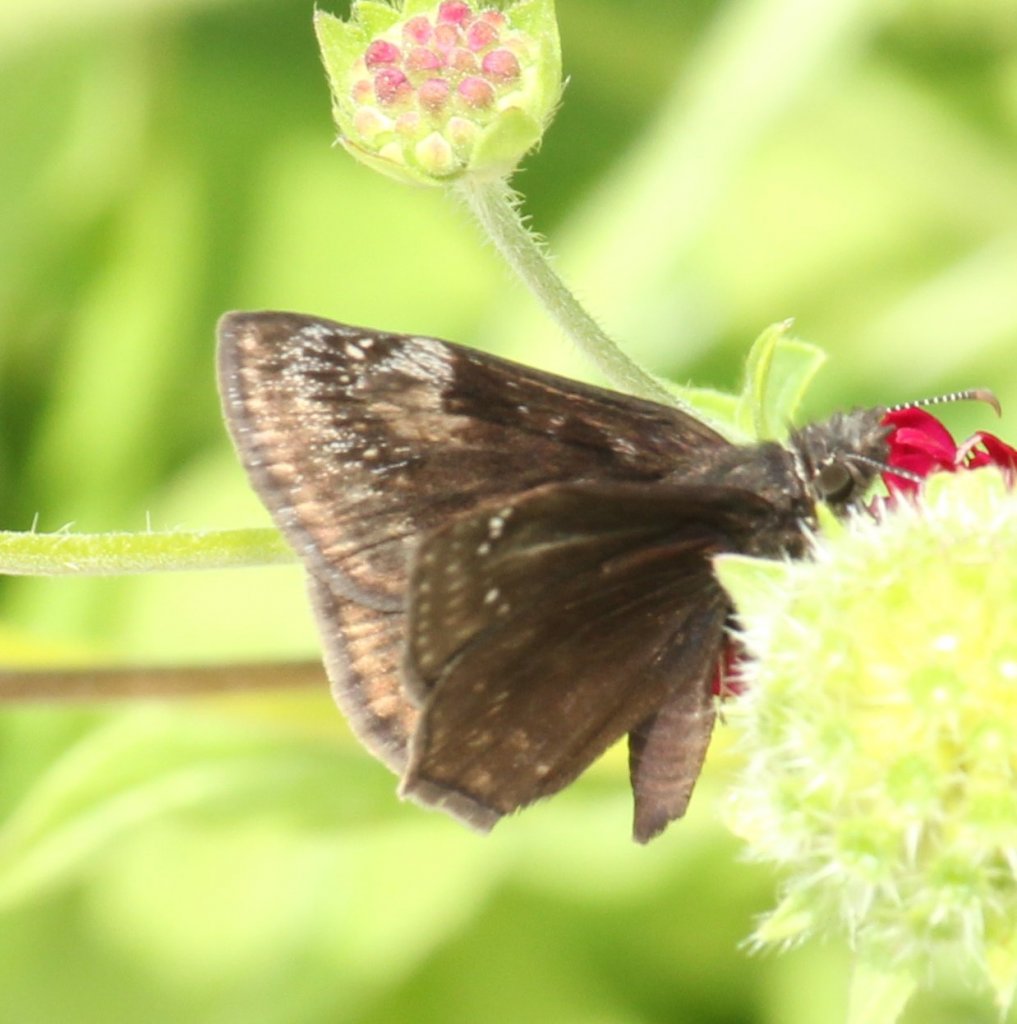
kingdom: Animalia
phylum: Arthropoda
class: Insecta
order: Lepidoptera
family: Hesperiidae
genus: Gesta
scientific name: Gesta
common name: Wild Indigo Duskywing
